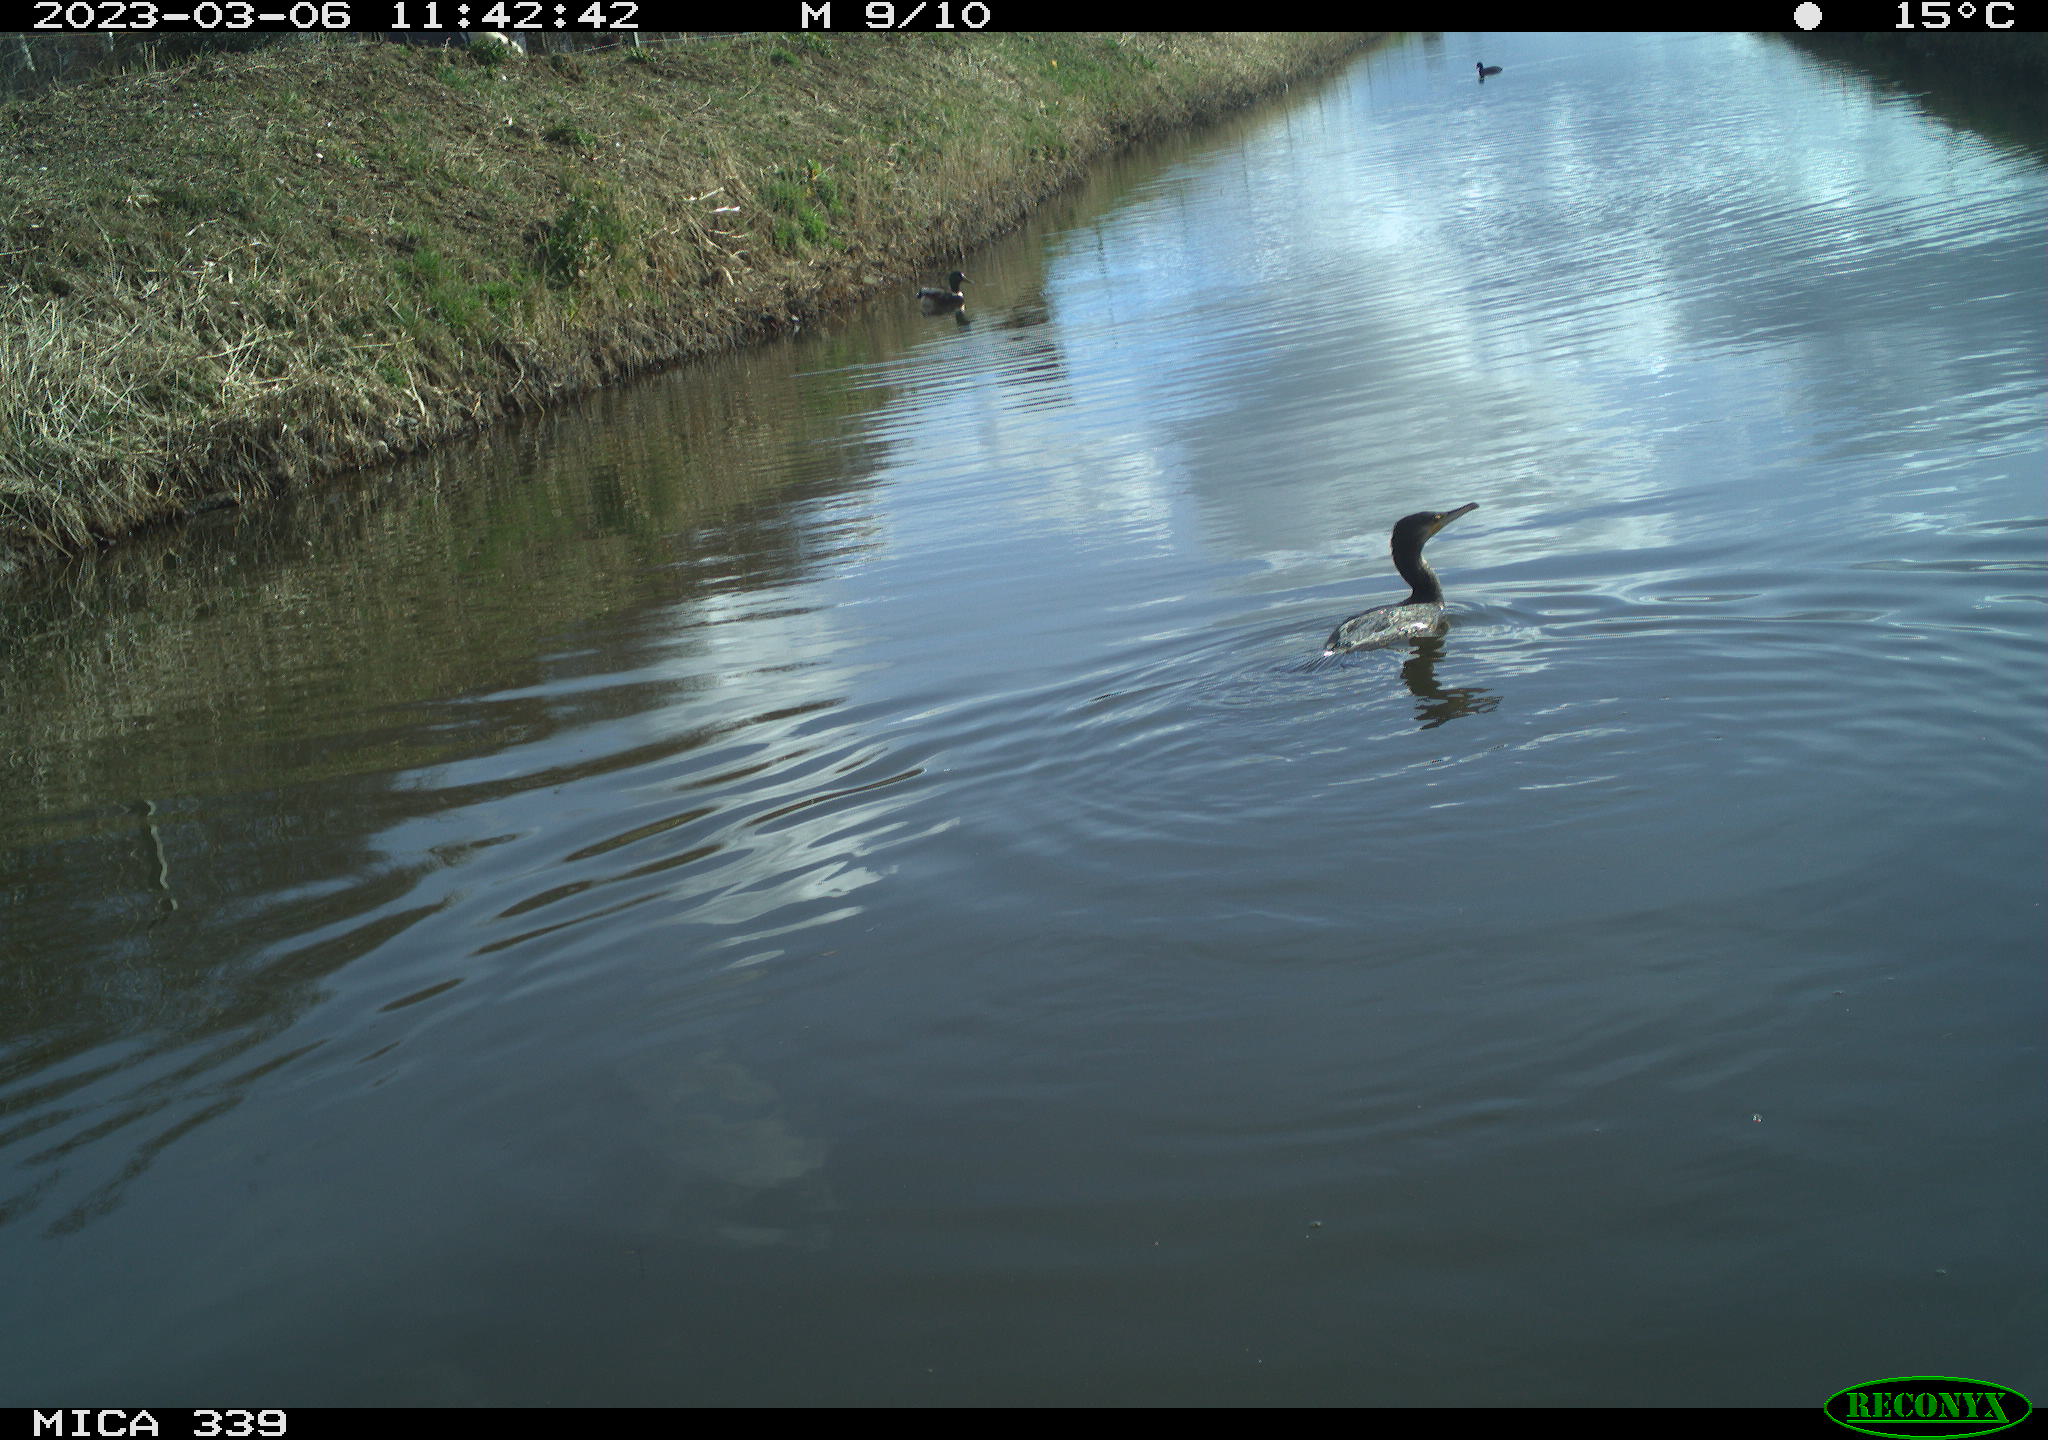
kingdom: Animalia
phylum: Chordata
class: Aves
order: Anseriformes
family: Anatidae
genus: Anas
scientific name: Anas
